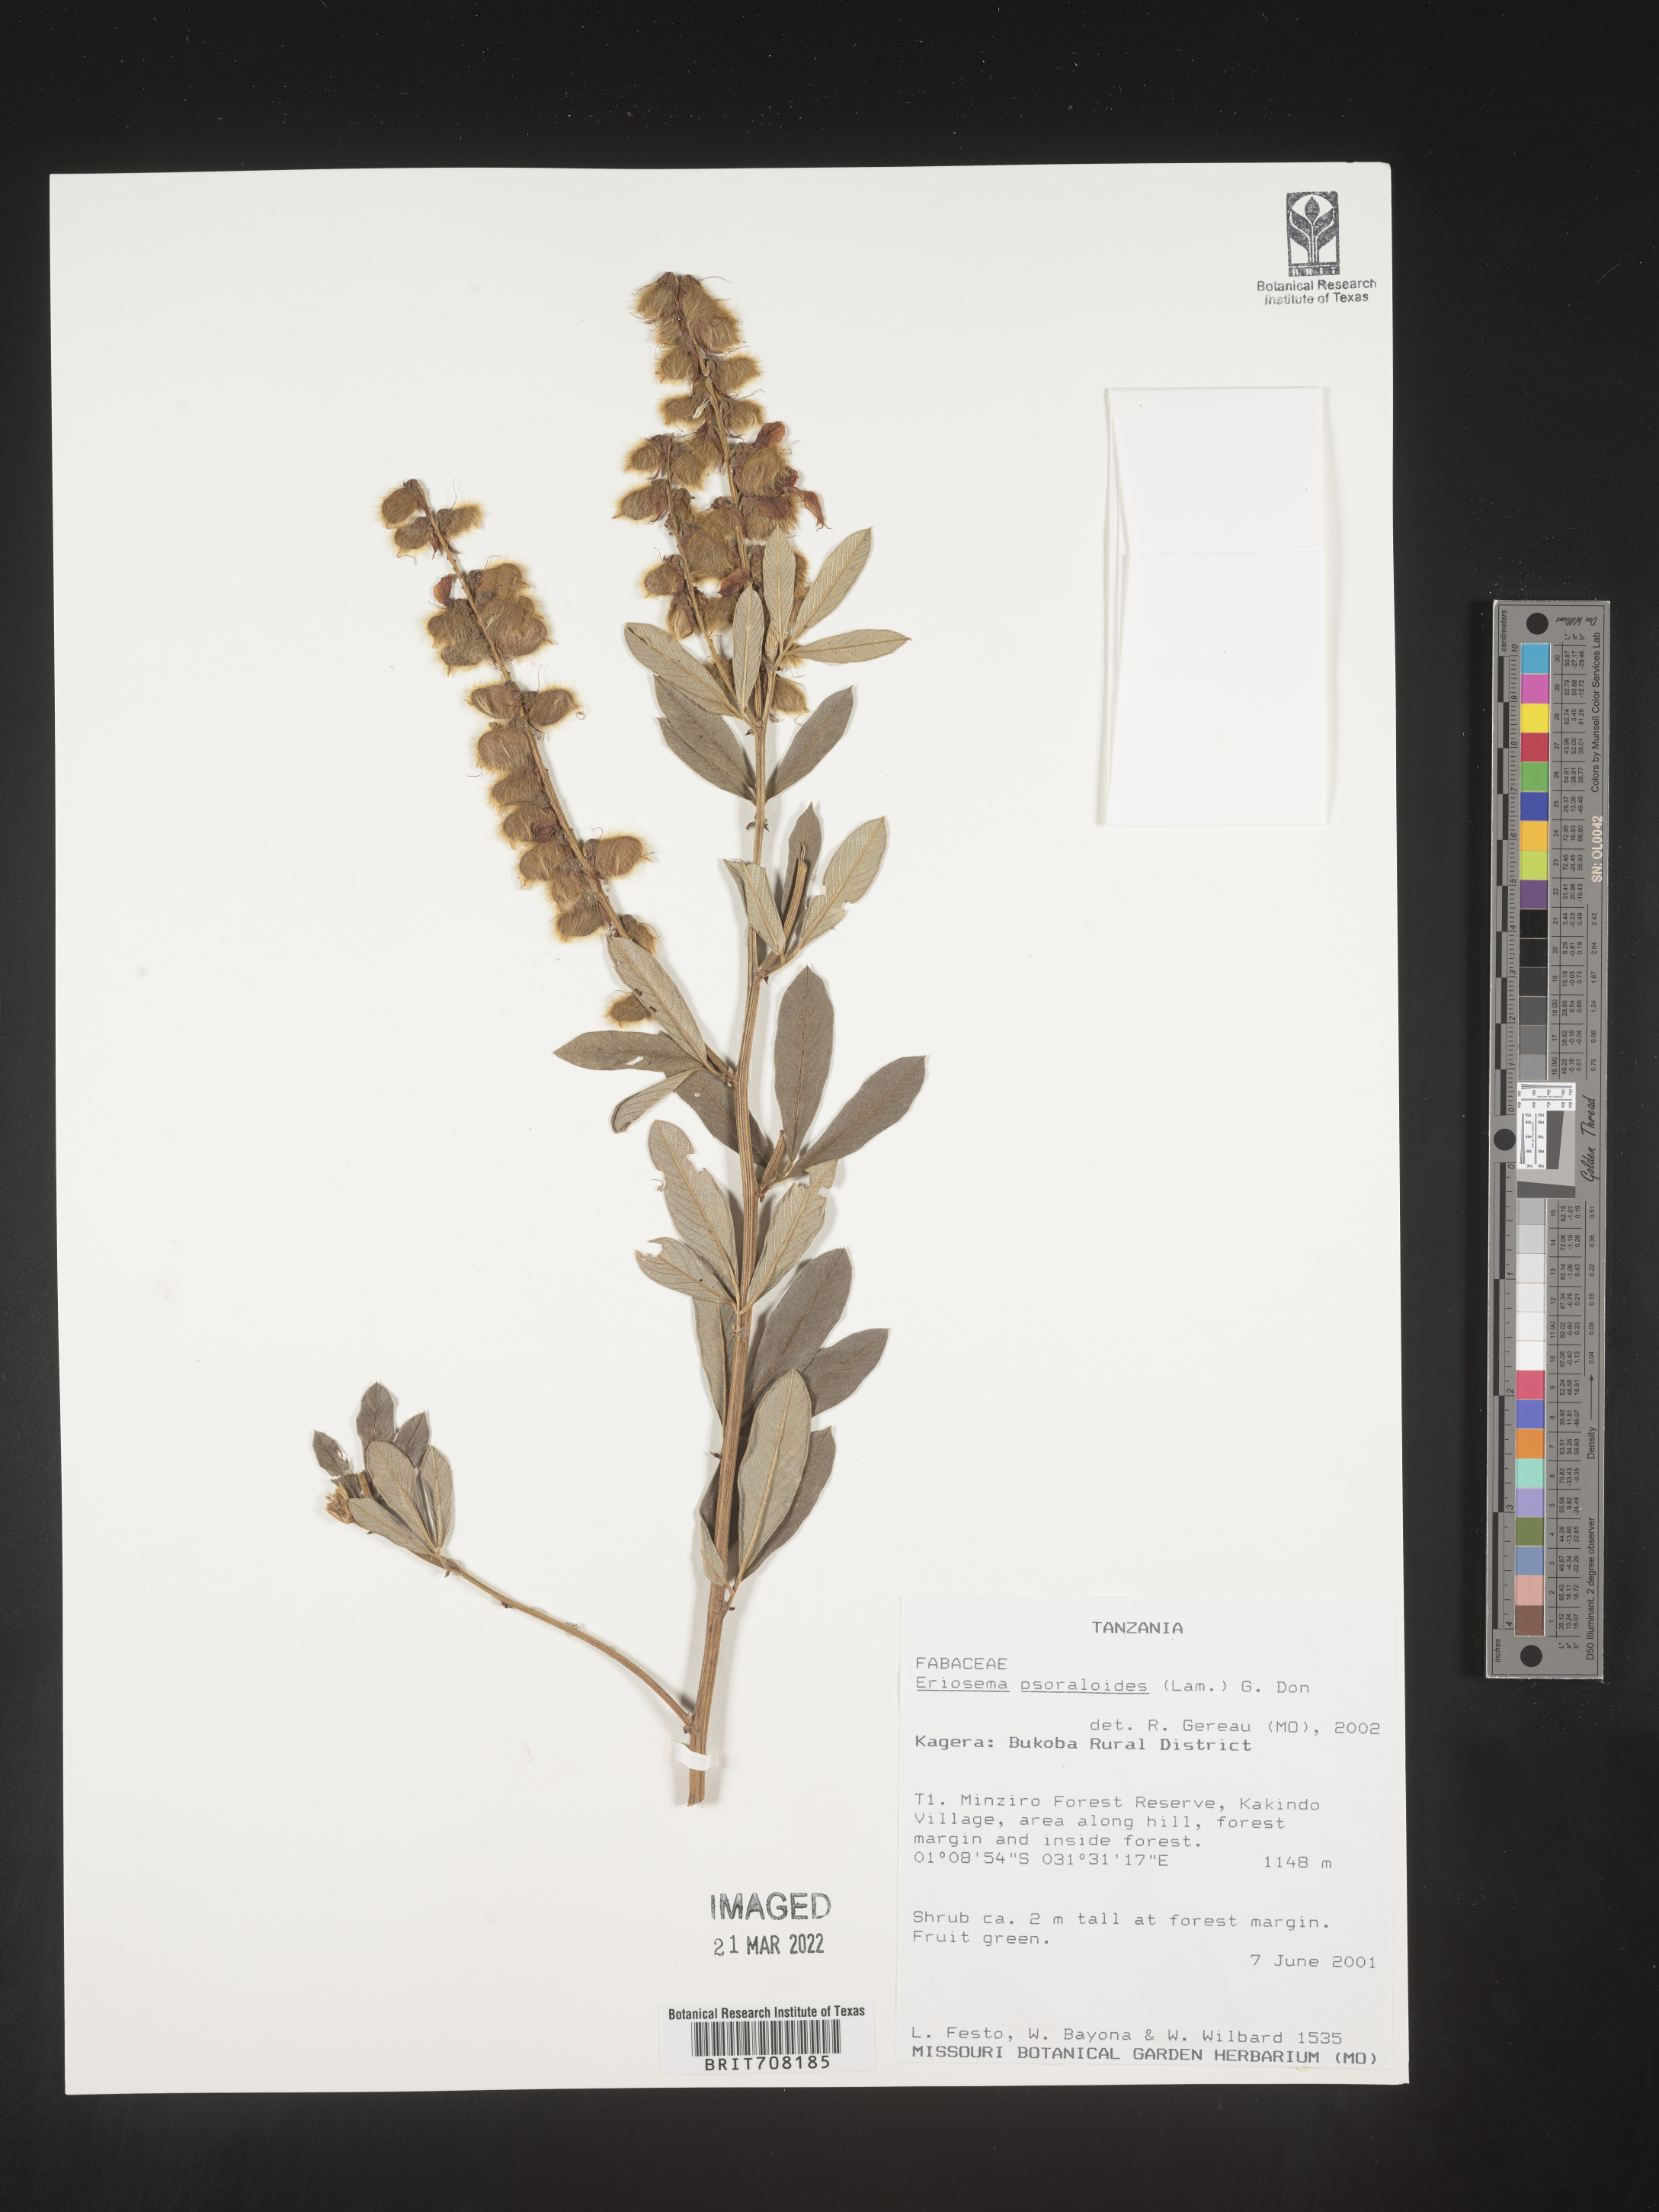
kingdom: Plantae
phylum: Tracheophyta
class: Magnoliopsida
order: Fabales
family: Fabaceae
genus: Eriosema
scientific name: Eriosema
